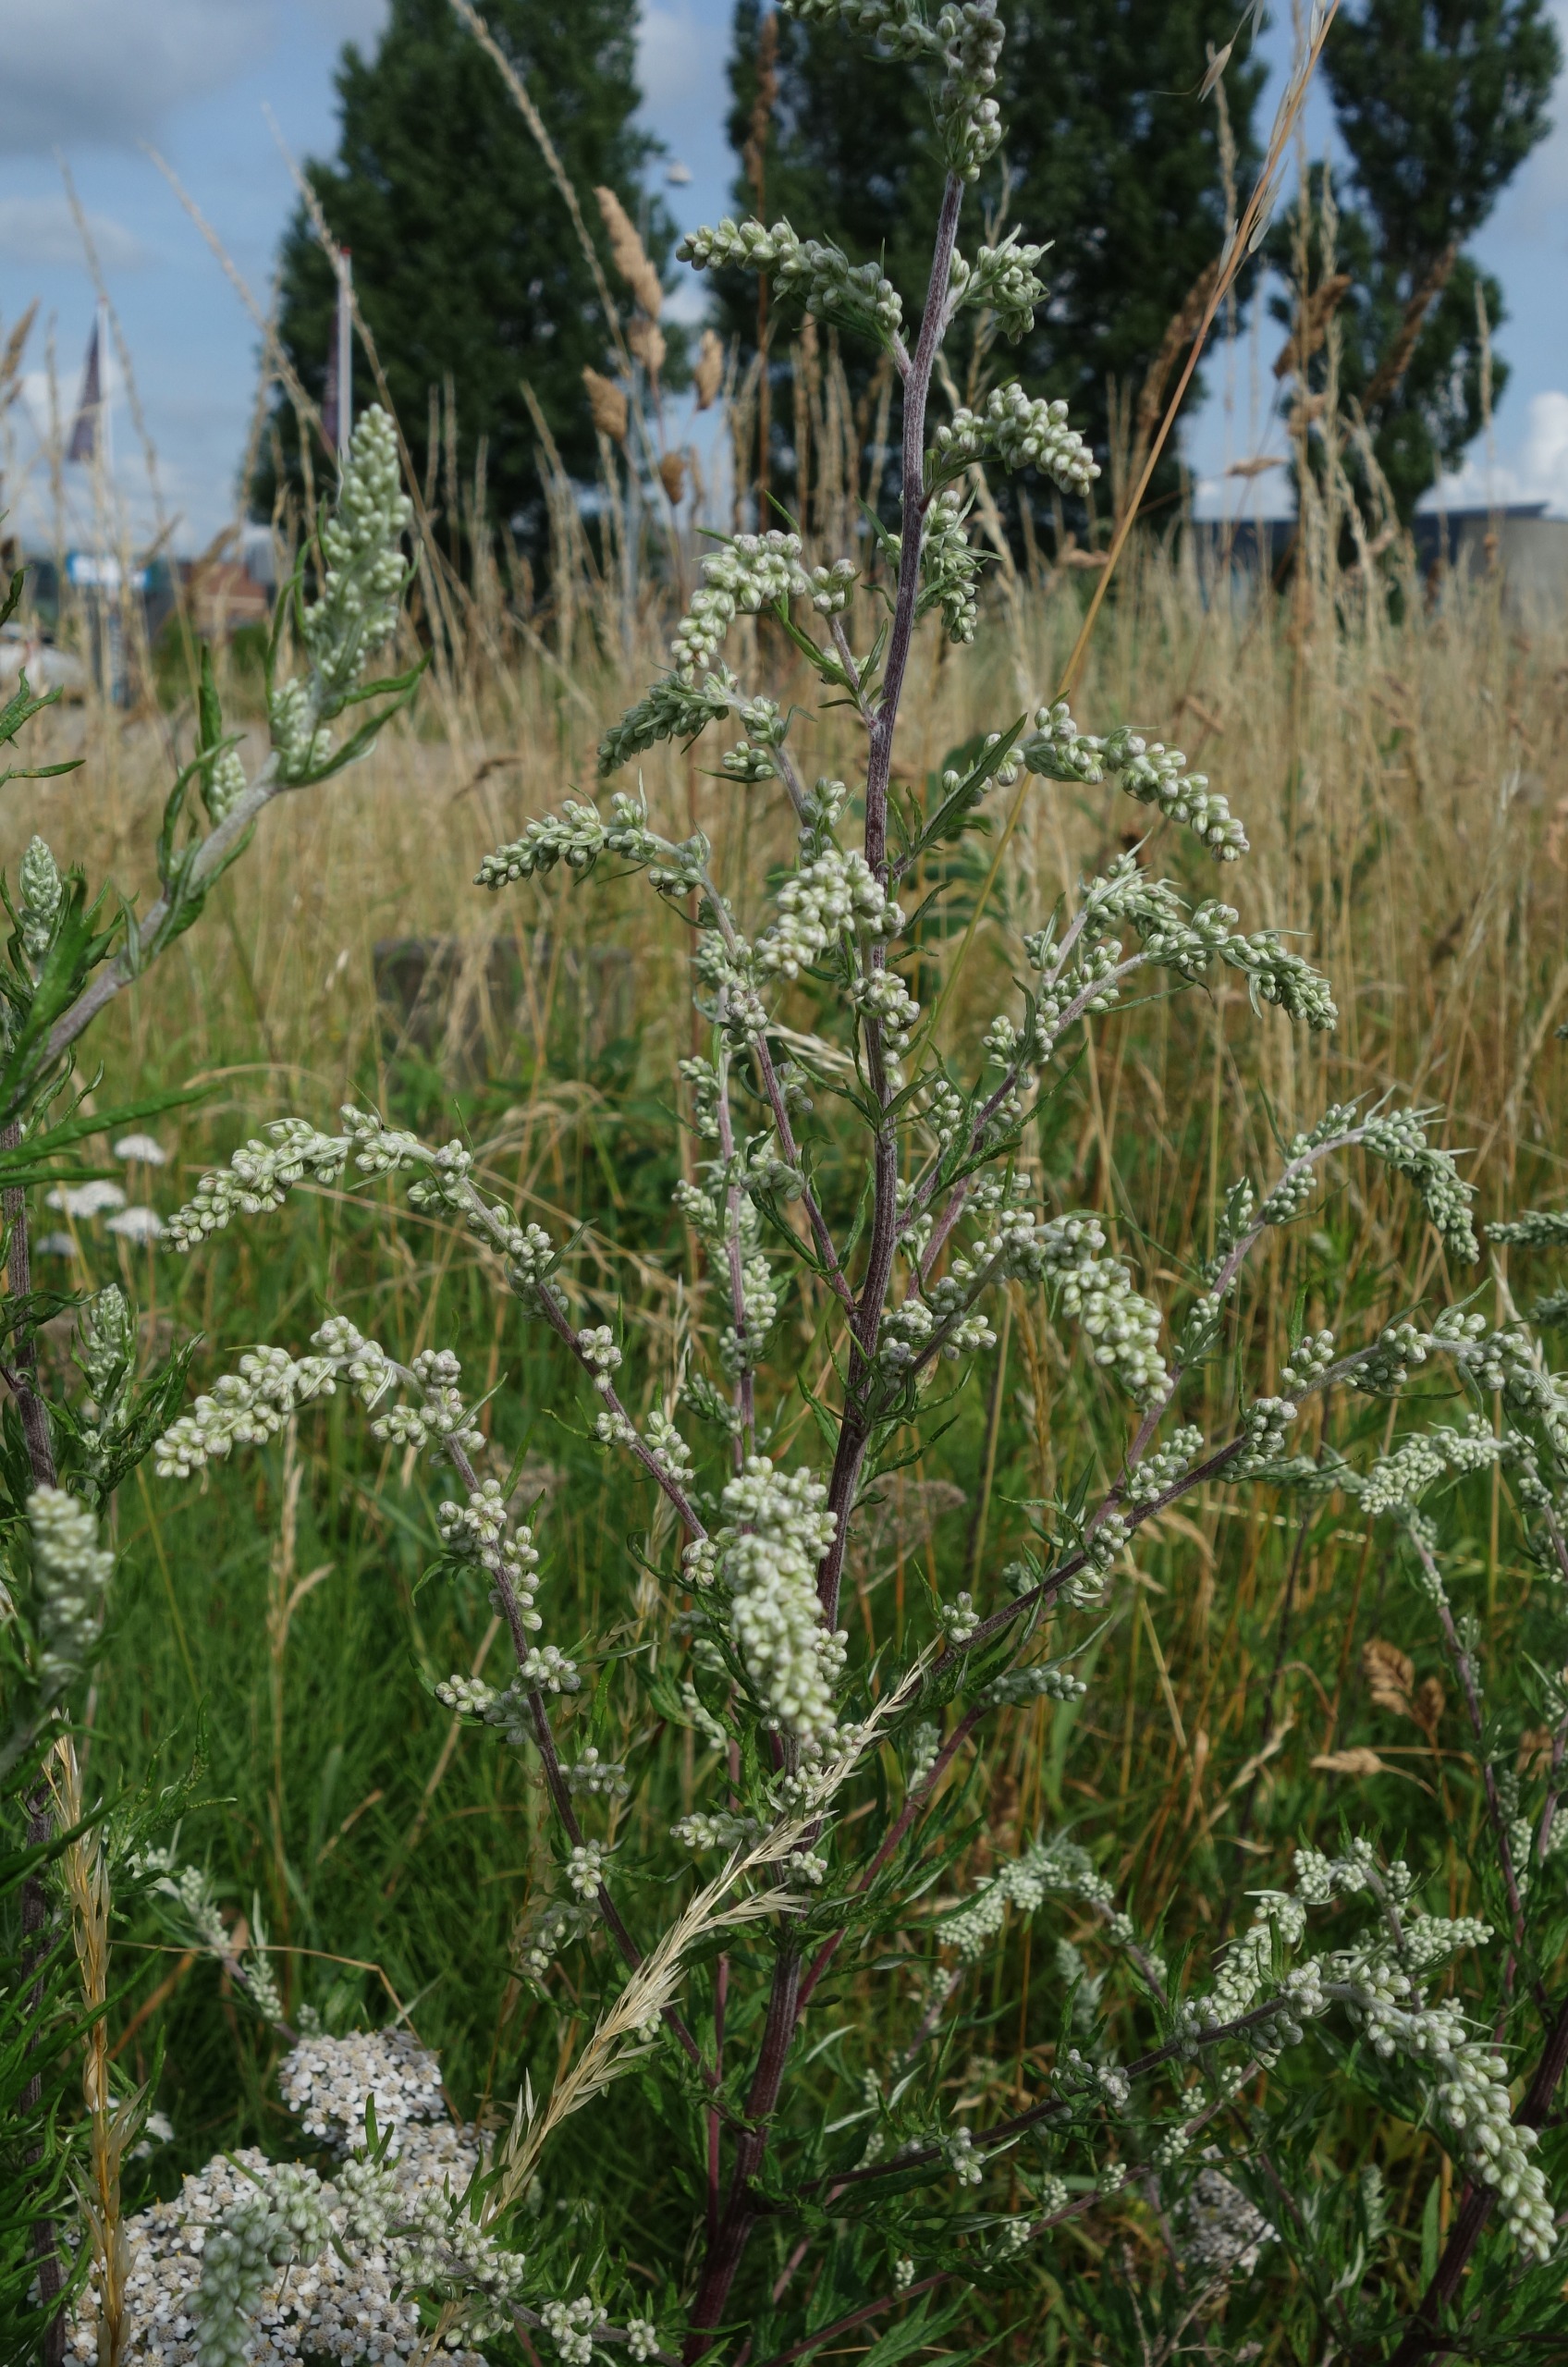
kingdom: Plantae
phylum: Tracheophyta
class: Magnoliopsida
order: Asterales
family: Asteraceae
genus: Artemisia
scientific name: Artemisia vulgaris
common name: Grå-bynke
